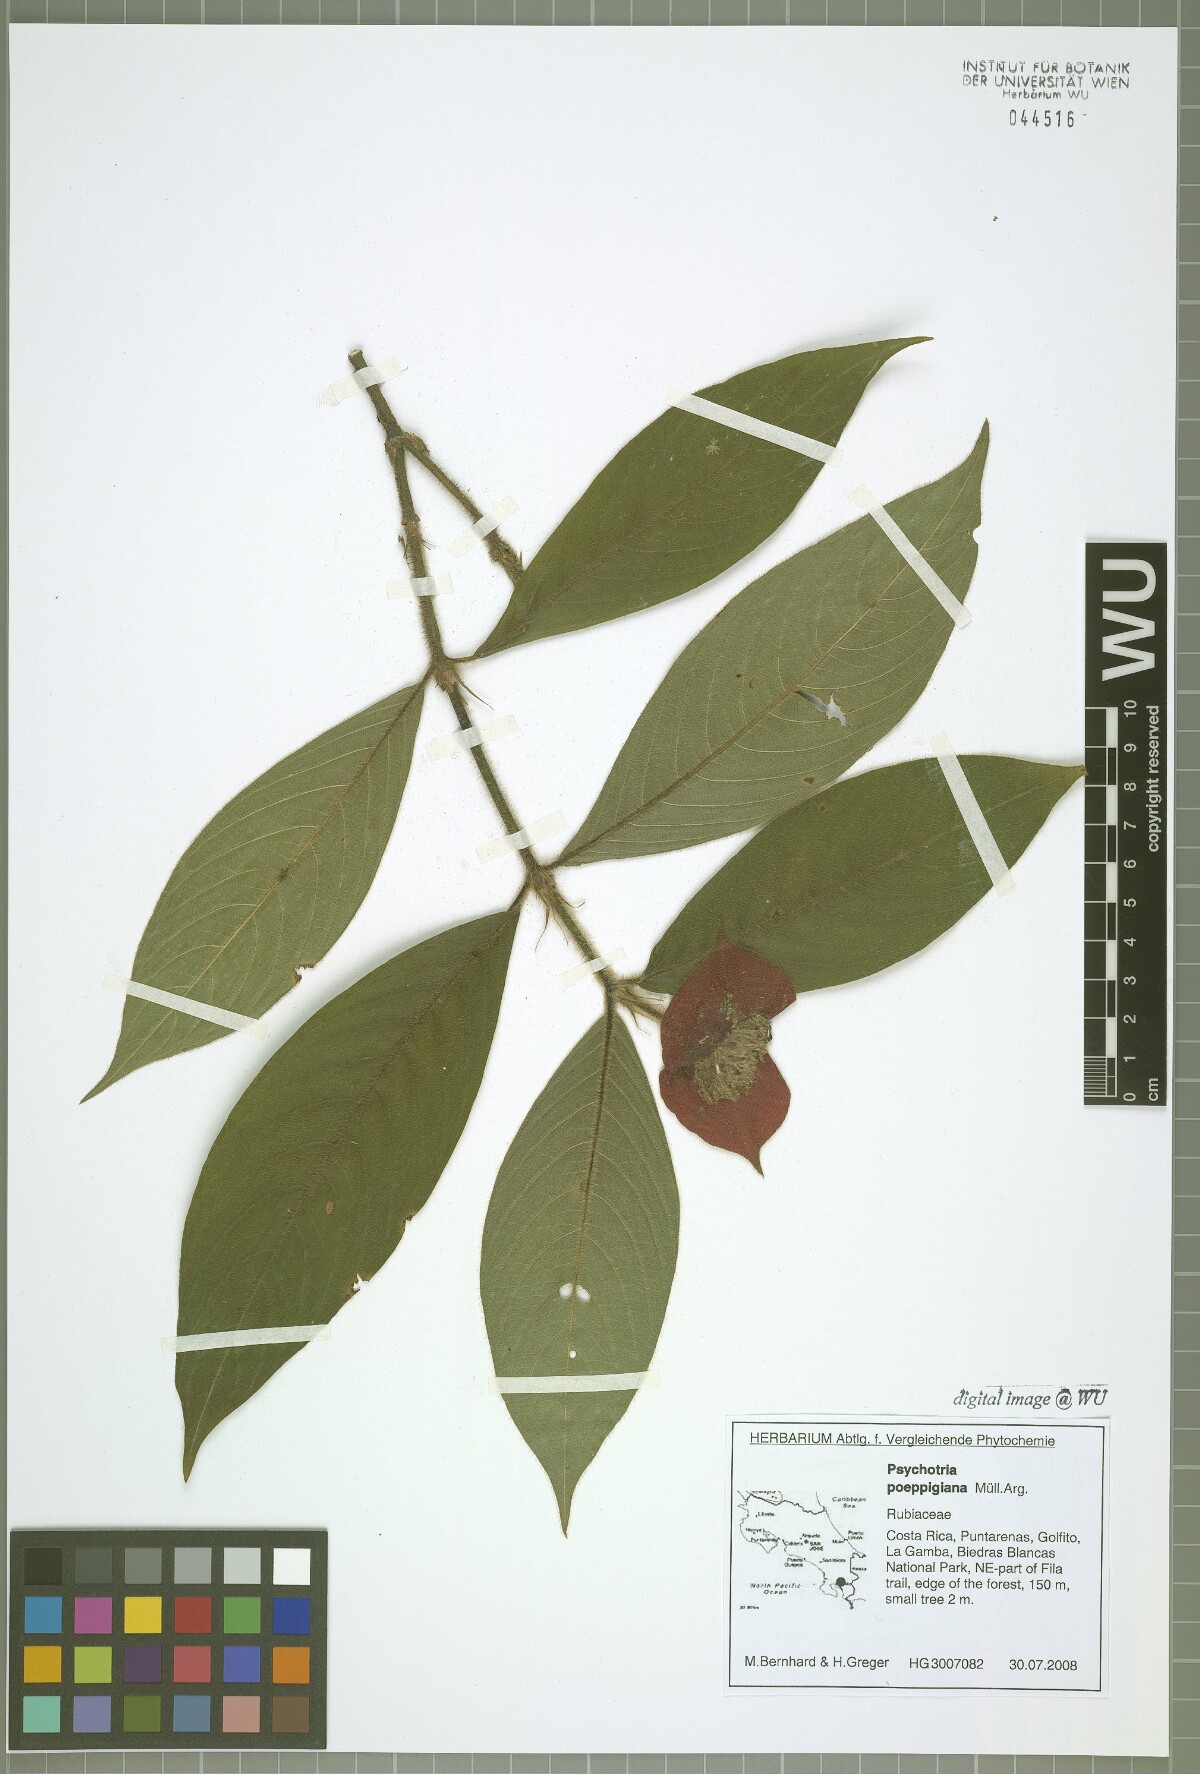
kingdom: Plantae
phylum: Tracheophyta
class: Magnoliopsida
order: Gentianales
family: Rubiaceae
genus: Palicourea
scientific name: Palicourea tomentosa
